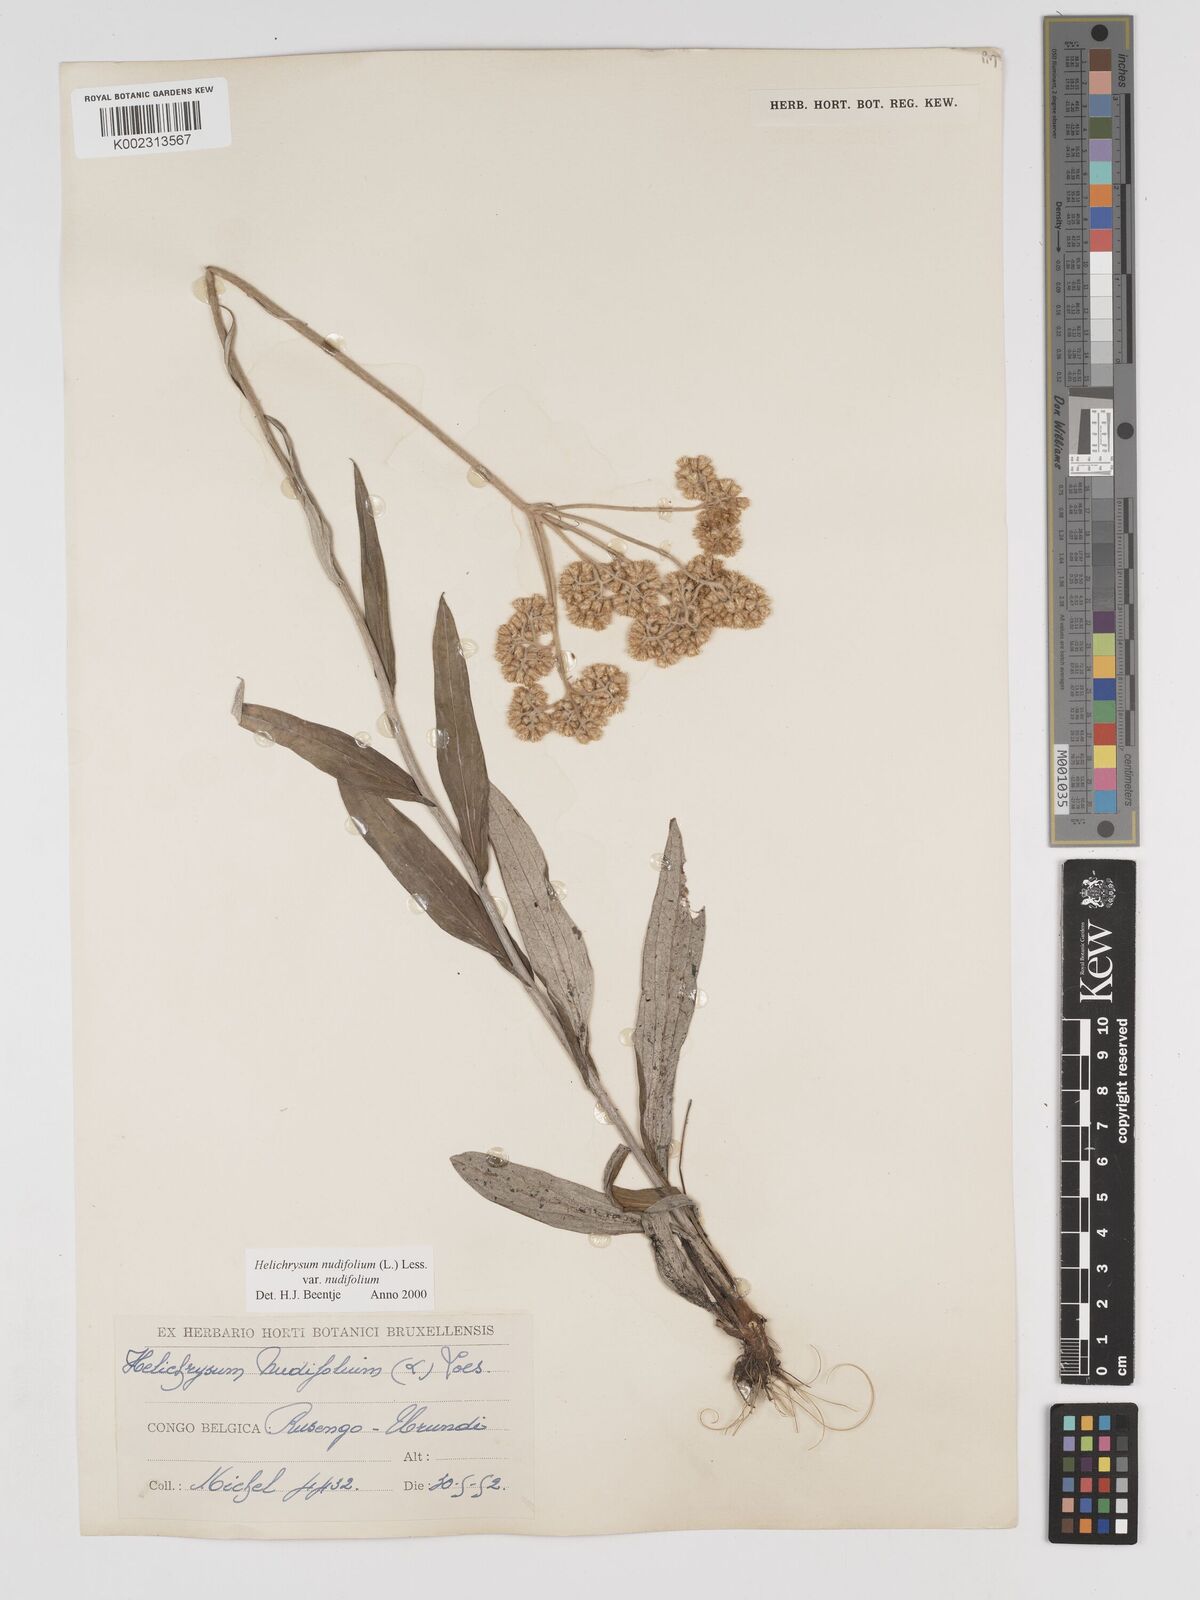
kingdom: Plantae
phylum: Tracheophyta
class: Magnoliopsida
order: Asterales
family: Asteraceae
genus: Helichrysum
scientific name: Helichrysum nudifolium
